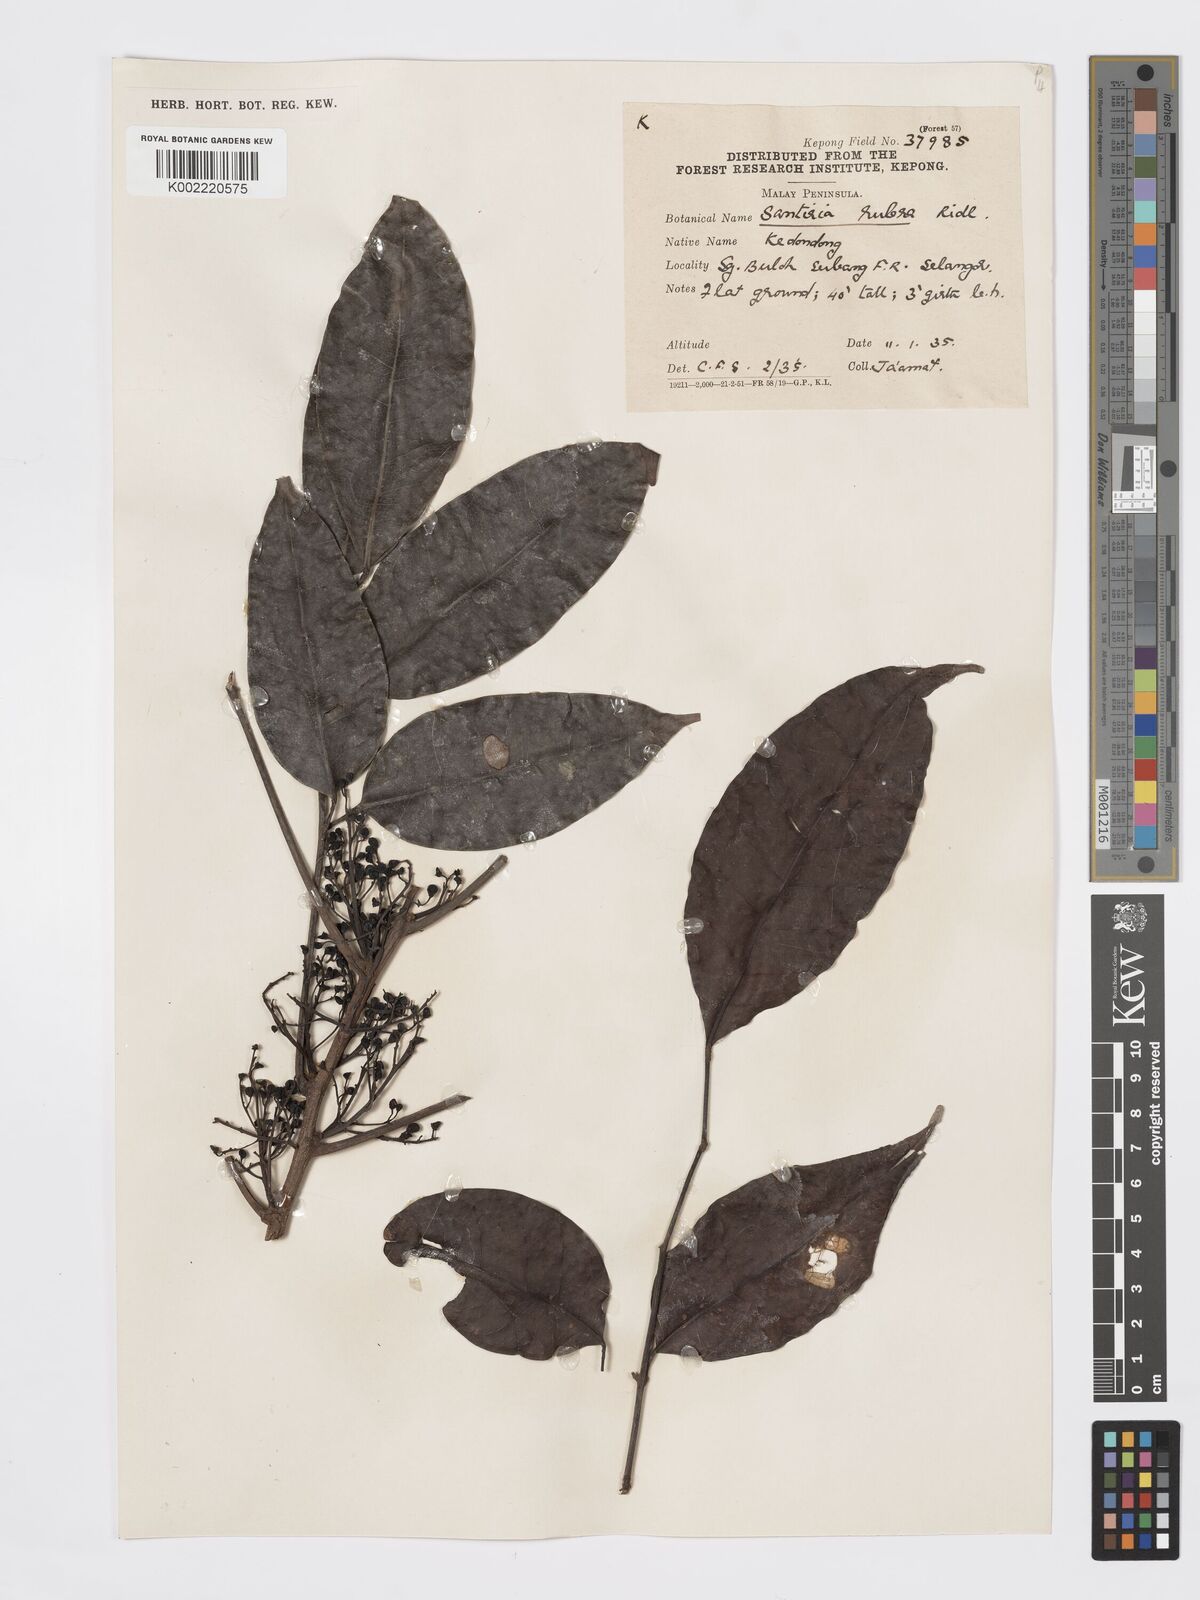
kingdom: Plantae
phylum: Tracheophyta
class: Magnoliopsida
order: Sapindales
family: Burseraceae
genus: Santiria
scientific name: Santiria apiculata
